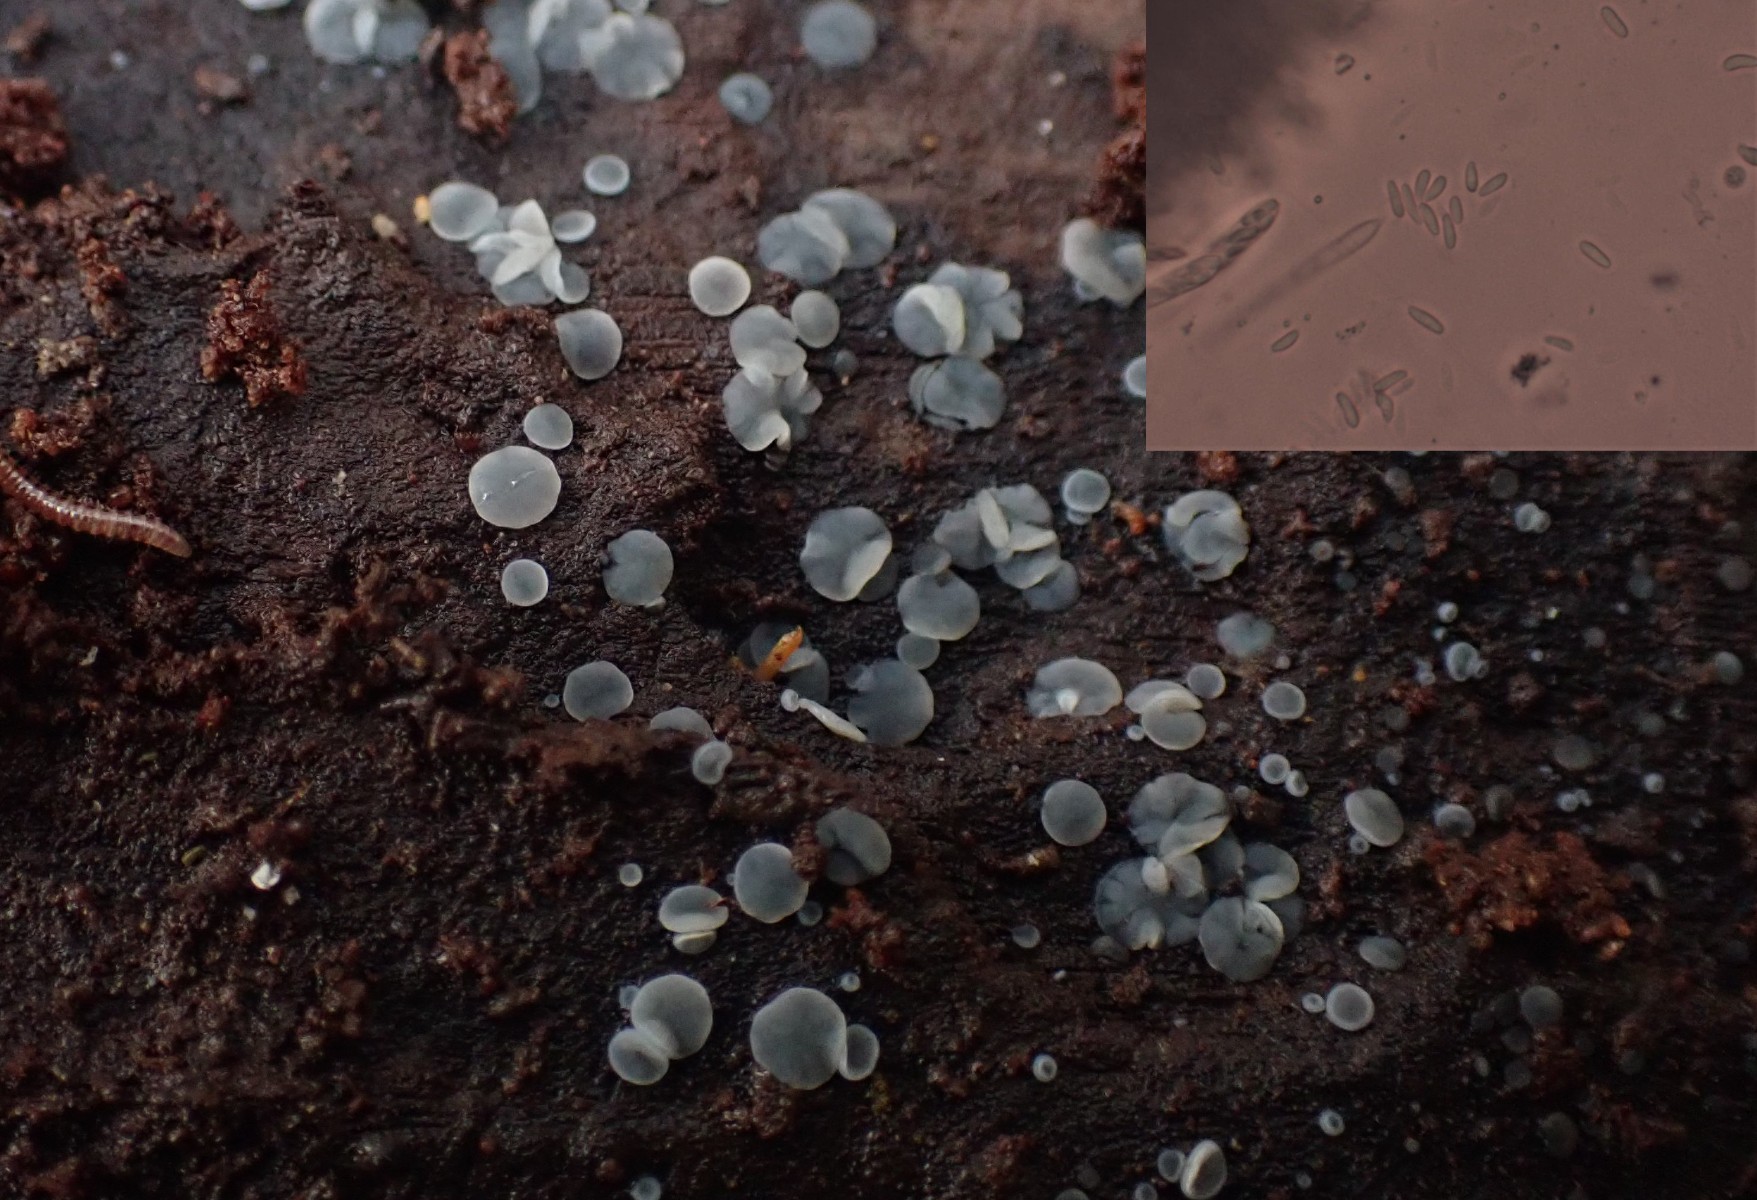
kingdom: Fungi
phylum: Ascomycota
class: Leotiomycetes
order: Helotiales
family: Mollisiaceae
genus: Mollisia
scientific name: Mollisia
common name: gråskive
